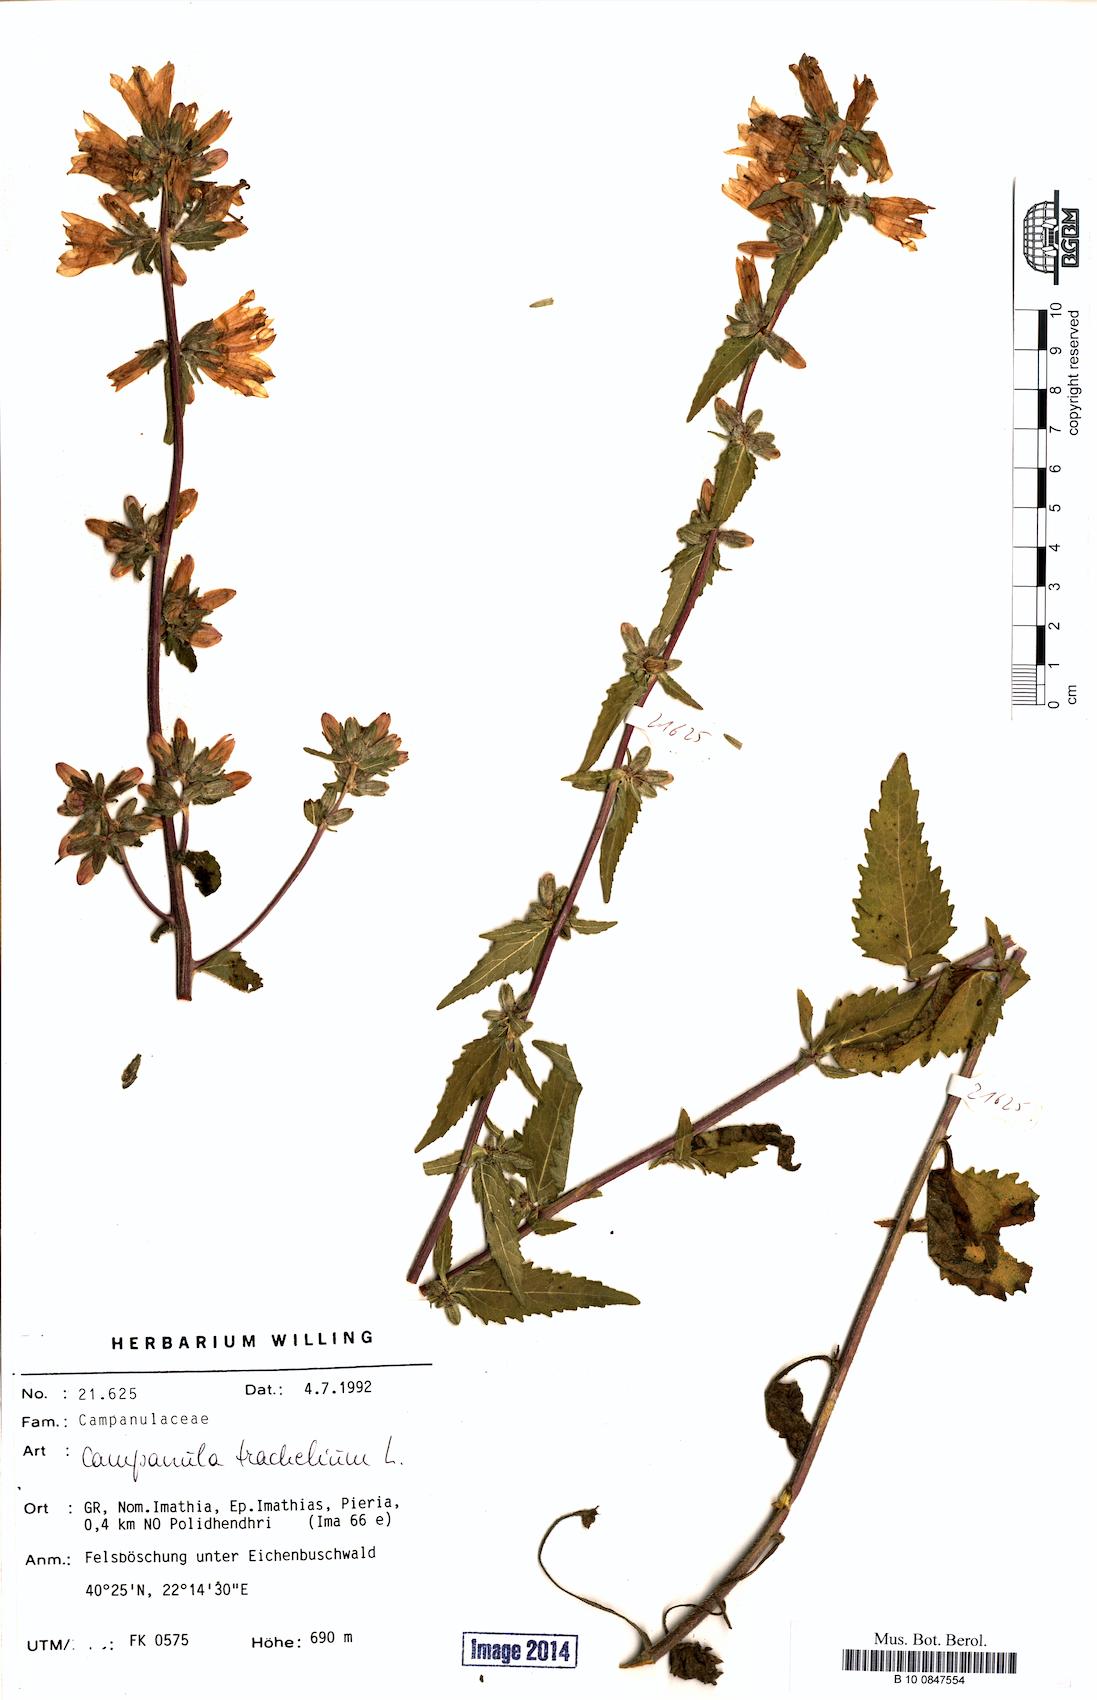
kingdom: Plantae
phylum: Tracheophyta
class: Magnoliopsida
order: Asterales
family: Campanulaceae
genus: Campanula
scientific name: Campanula trachelium
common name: Nettle-leaved bellflower
